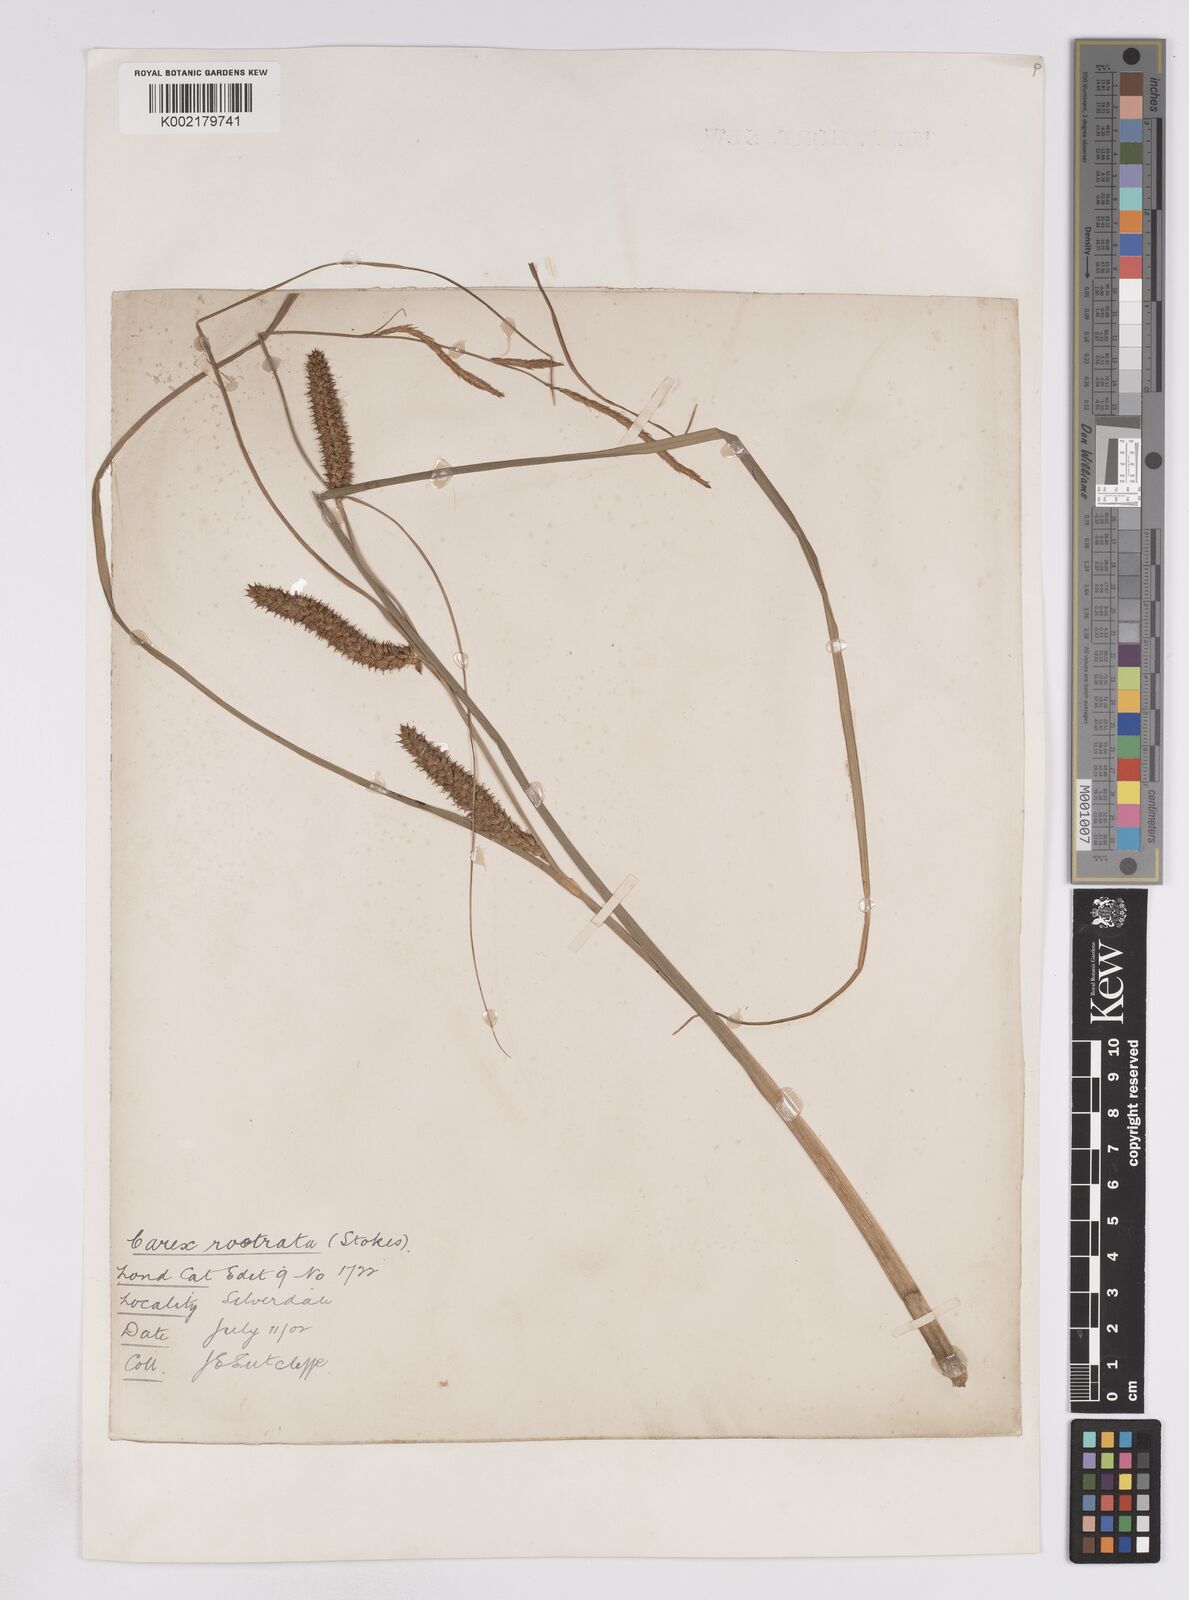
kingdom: Plantae
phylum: Tracheophyta
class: Liliopsida
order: Poales
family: Cyperaceae
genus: Carex
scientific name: Carex rostrata
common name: Bottle sedge
